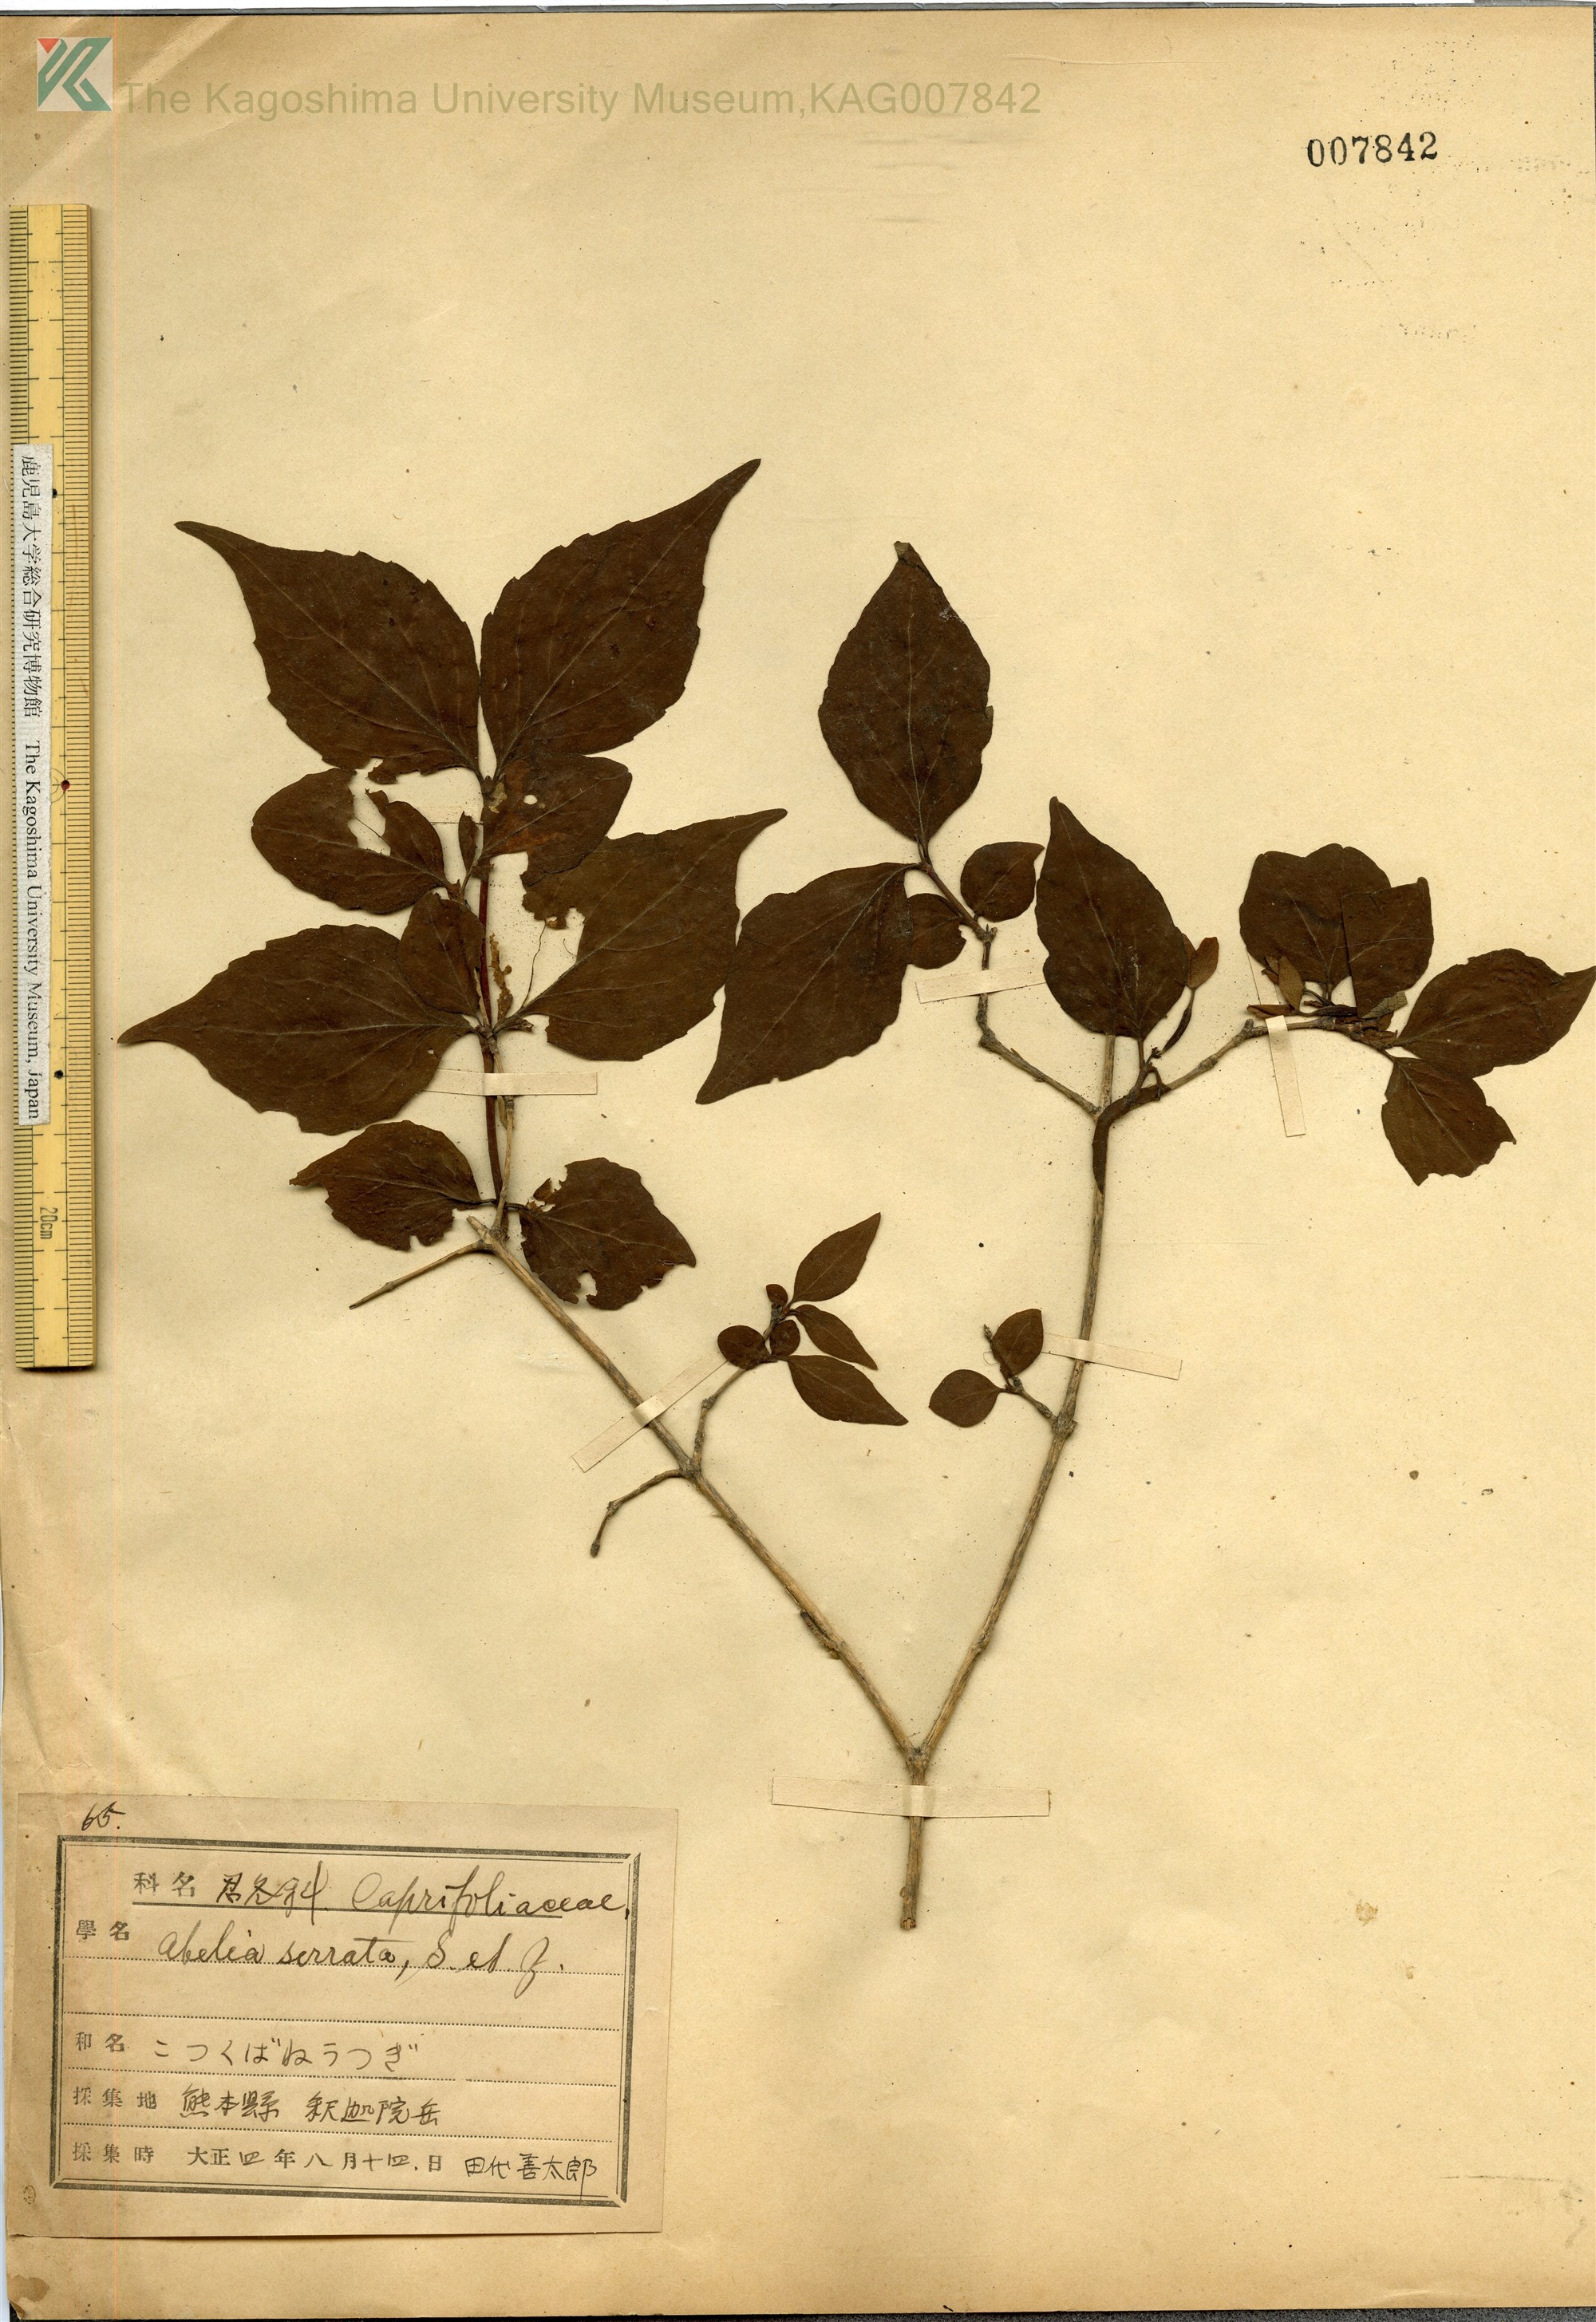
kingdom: Plantae
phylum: Tracheophyta
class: Magnoliopsida
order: Dipsacales
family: Caprifoliaceae
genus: Diabelia
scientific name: Diabelia serrata
